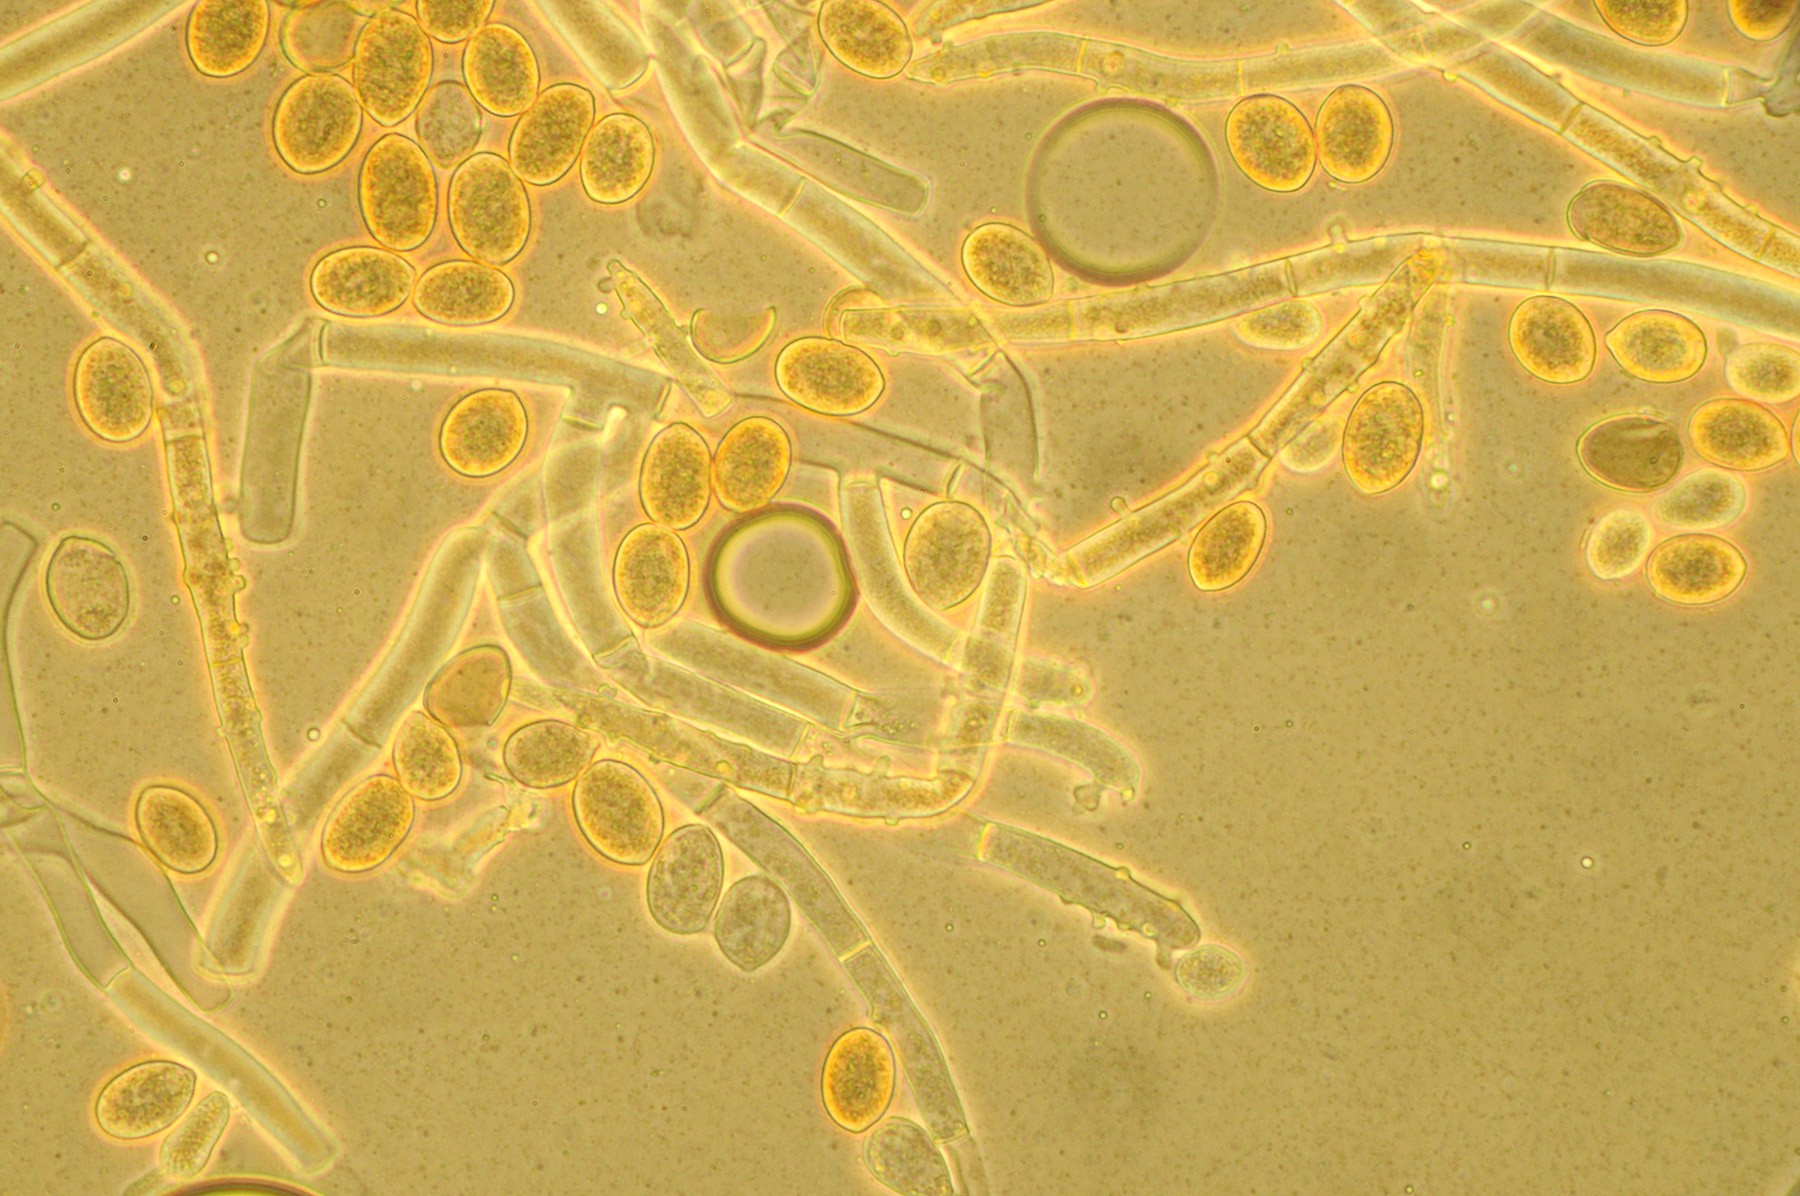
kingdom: Fungi
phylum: Basidiomycota
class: Agaricomycetes
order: Cantharellales
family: Botryobasidiaceae
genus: Botryobasidium
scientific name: Botryobasidium conspersum
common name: olivengrå spindhinde
